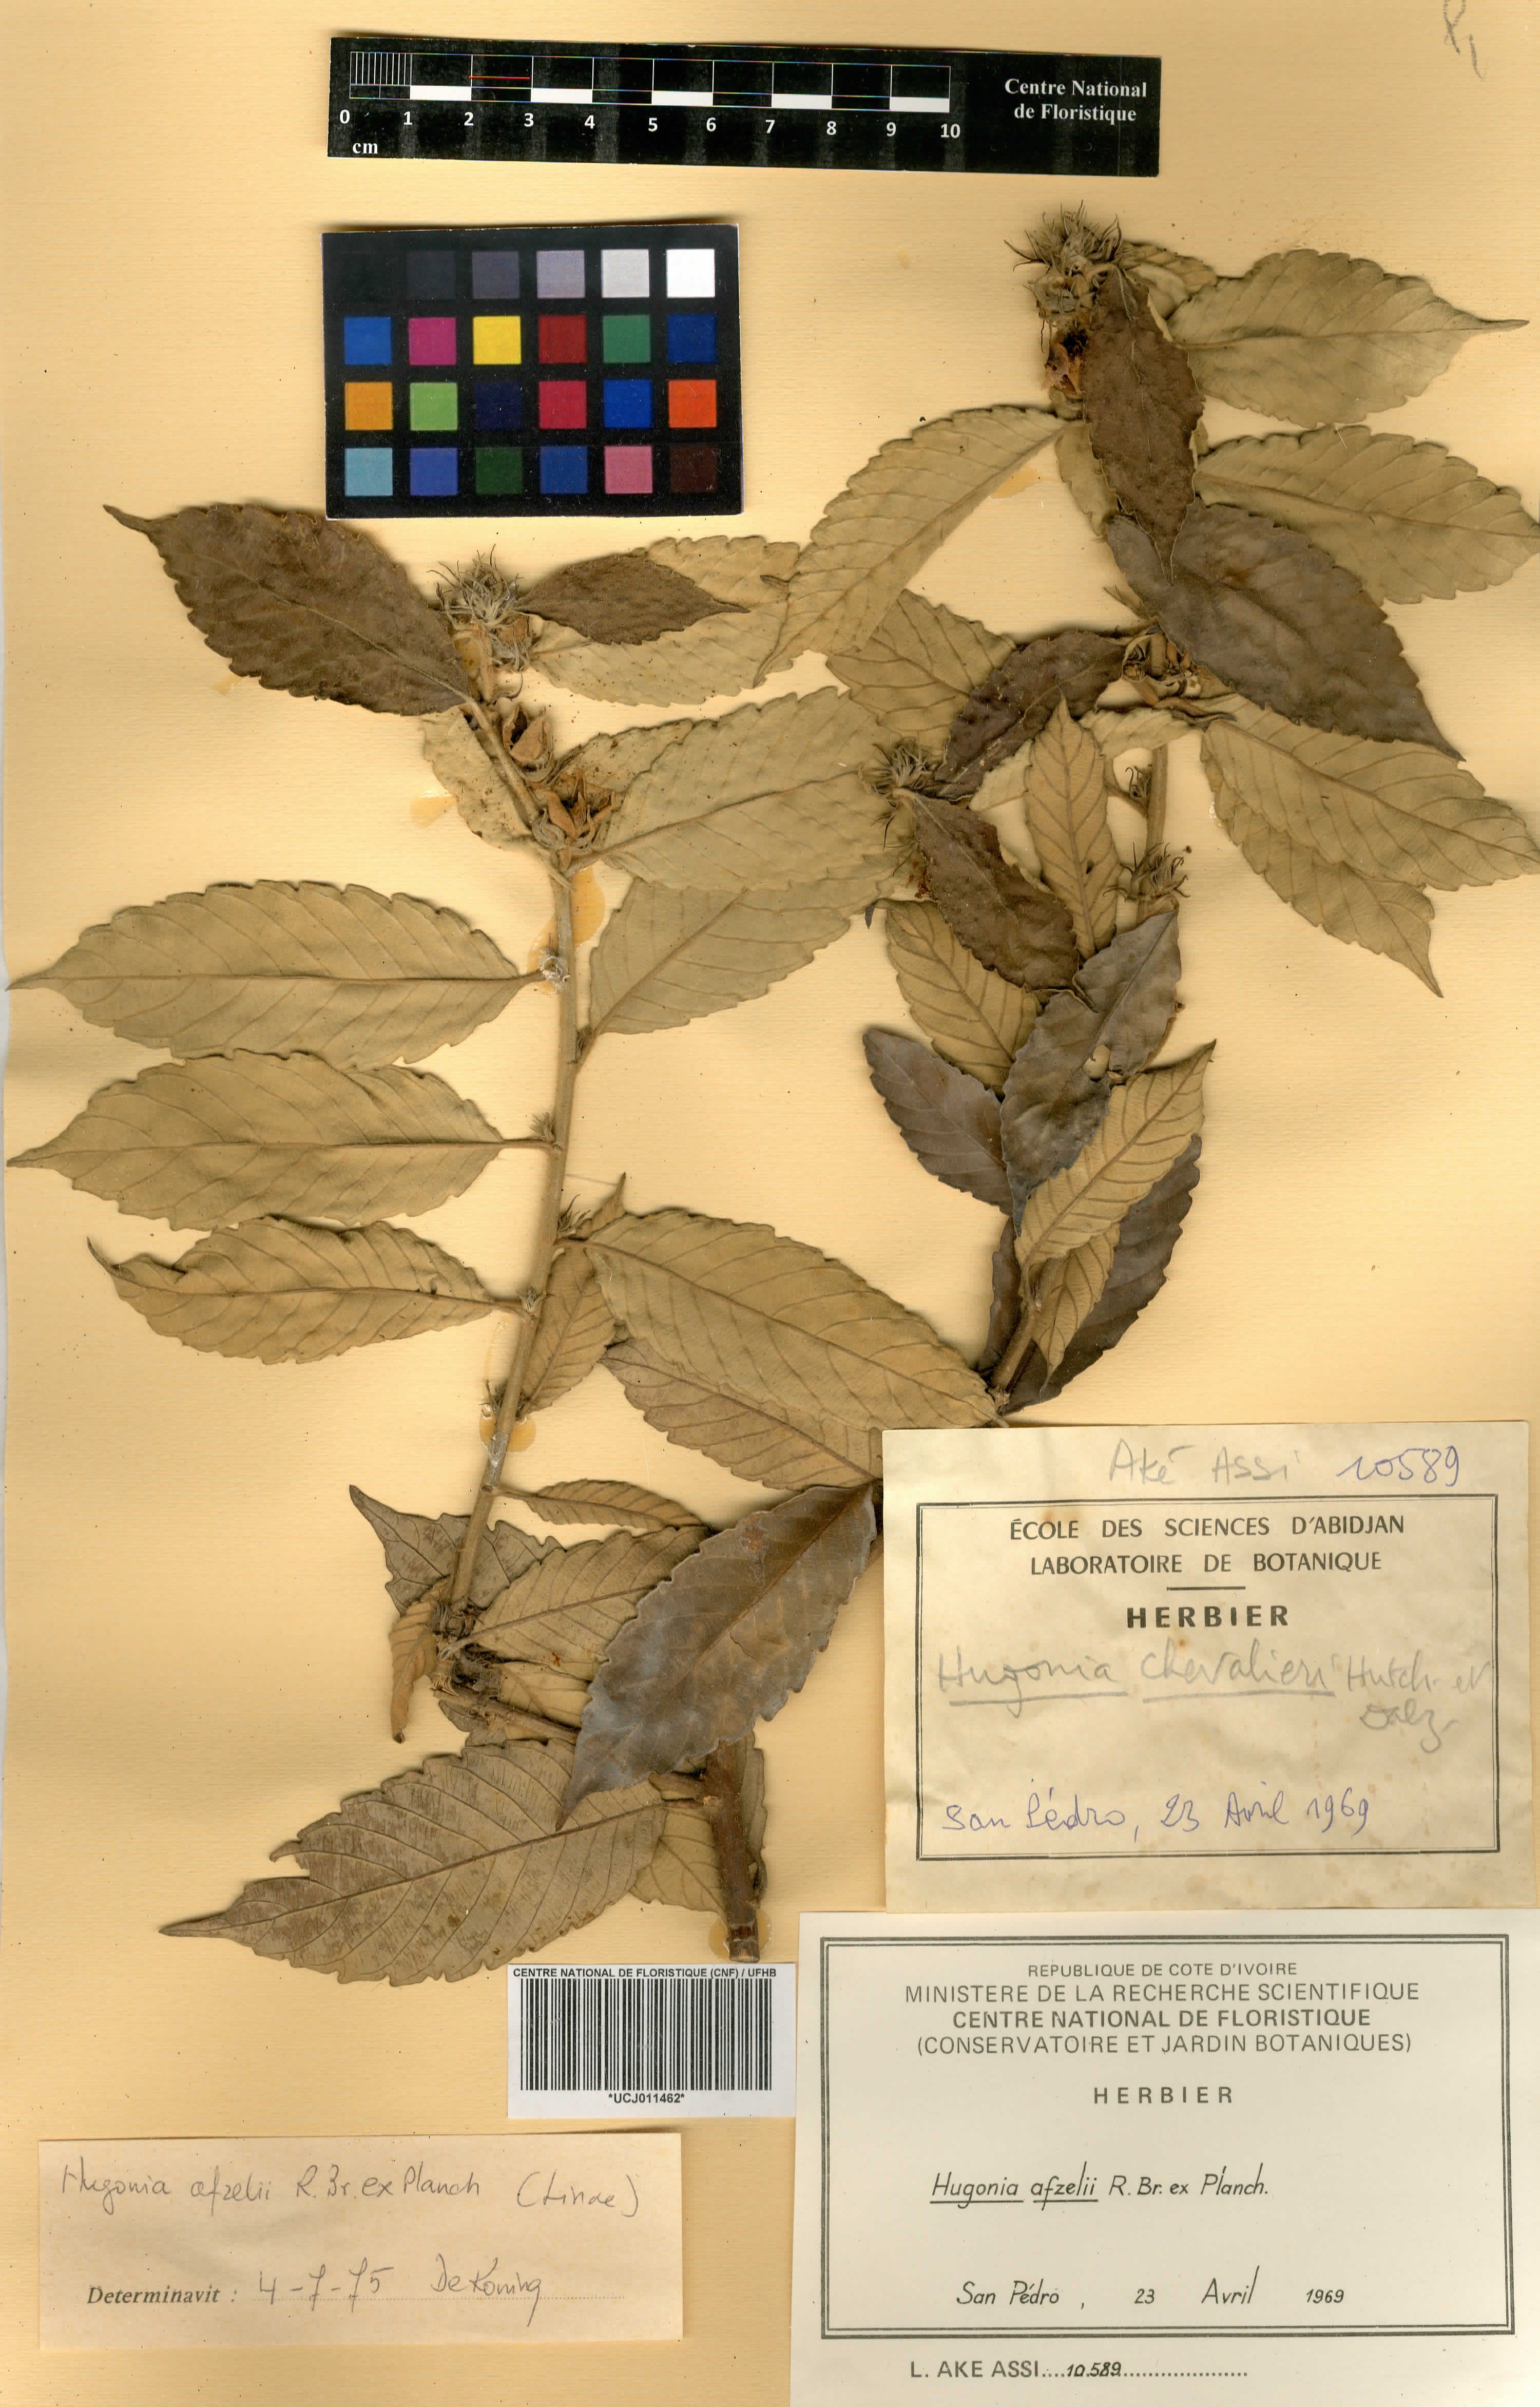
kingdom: Plantae
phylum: Tracheophyta
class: Magnoliopsida
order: Malpighiales
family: Linaceae
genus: Hugonia
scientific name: Hugonia afzelii
